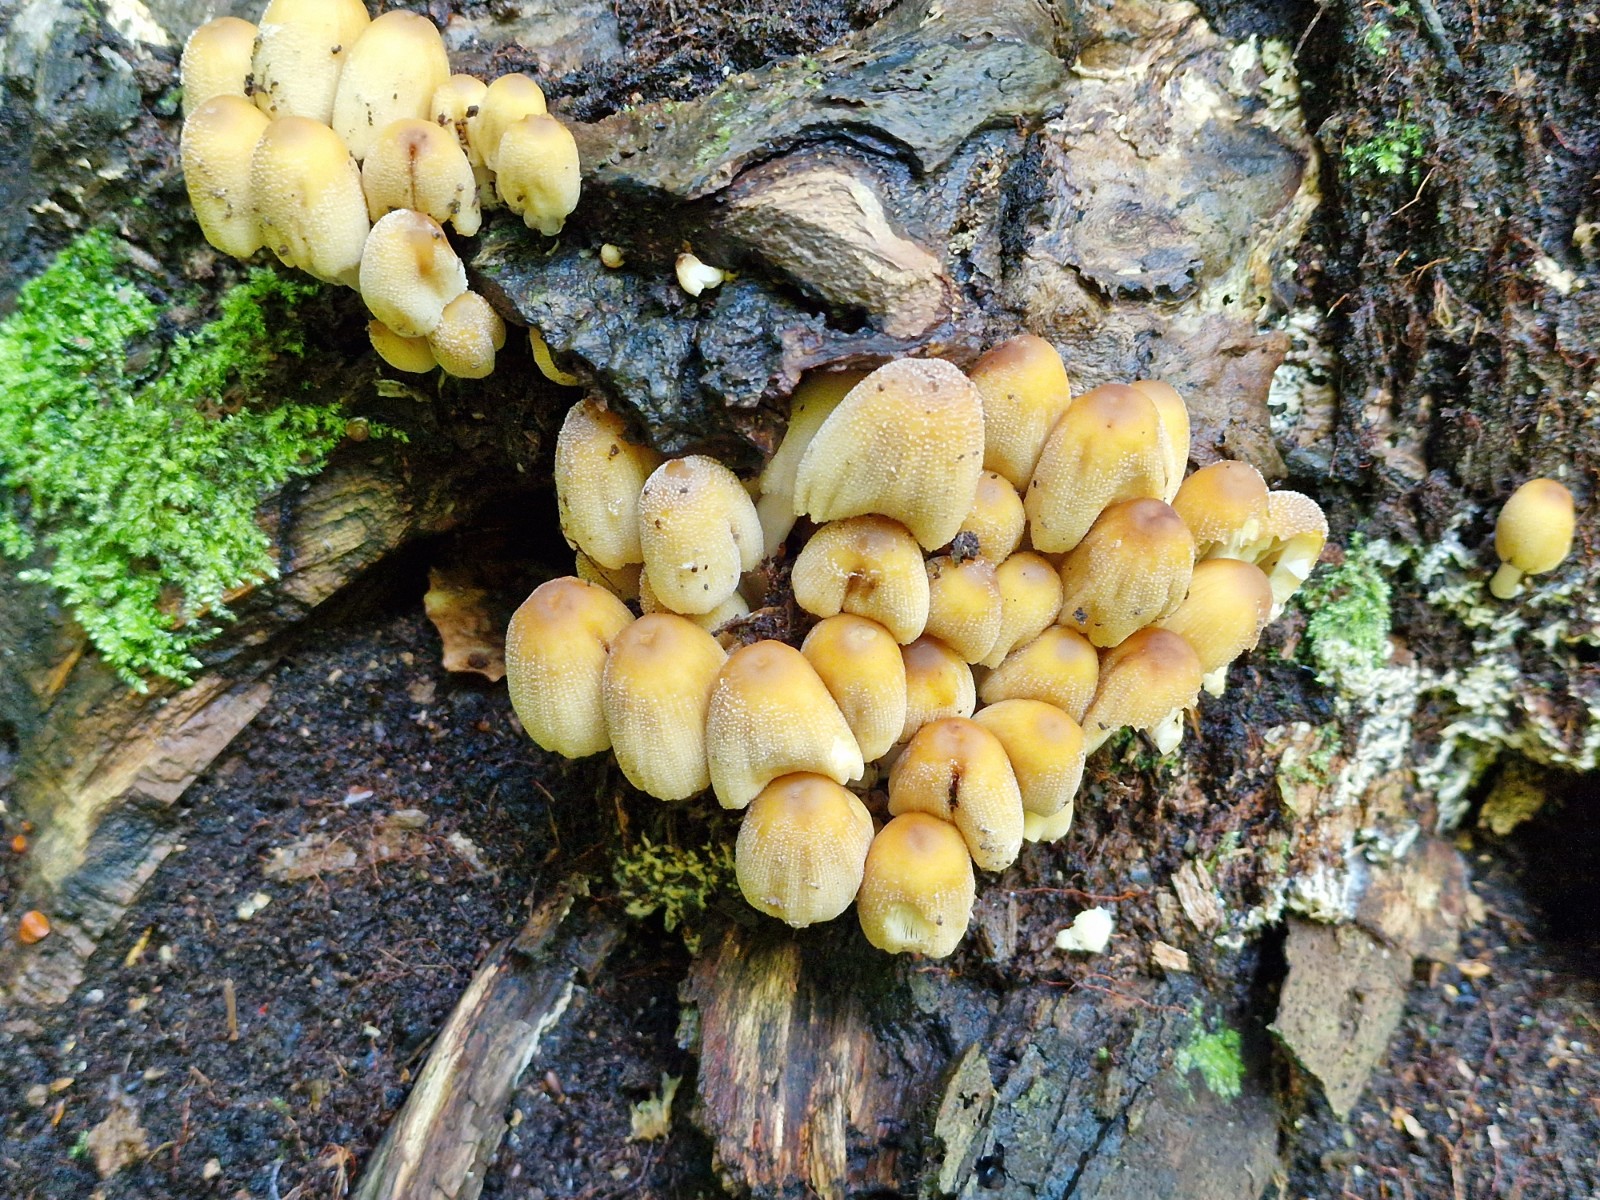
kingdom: Fungi
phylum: Basidiomycota
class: Agaricomycetes
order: Agaricales
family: Psathyrellaceae
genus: Coprinellus
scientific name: Coprinellus micaceus
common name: glimmer-blækhat
